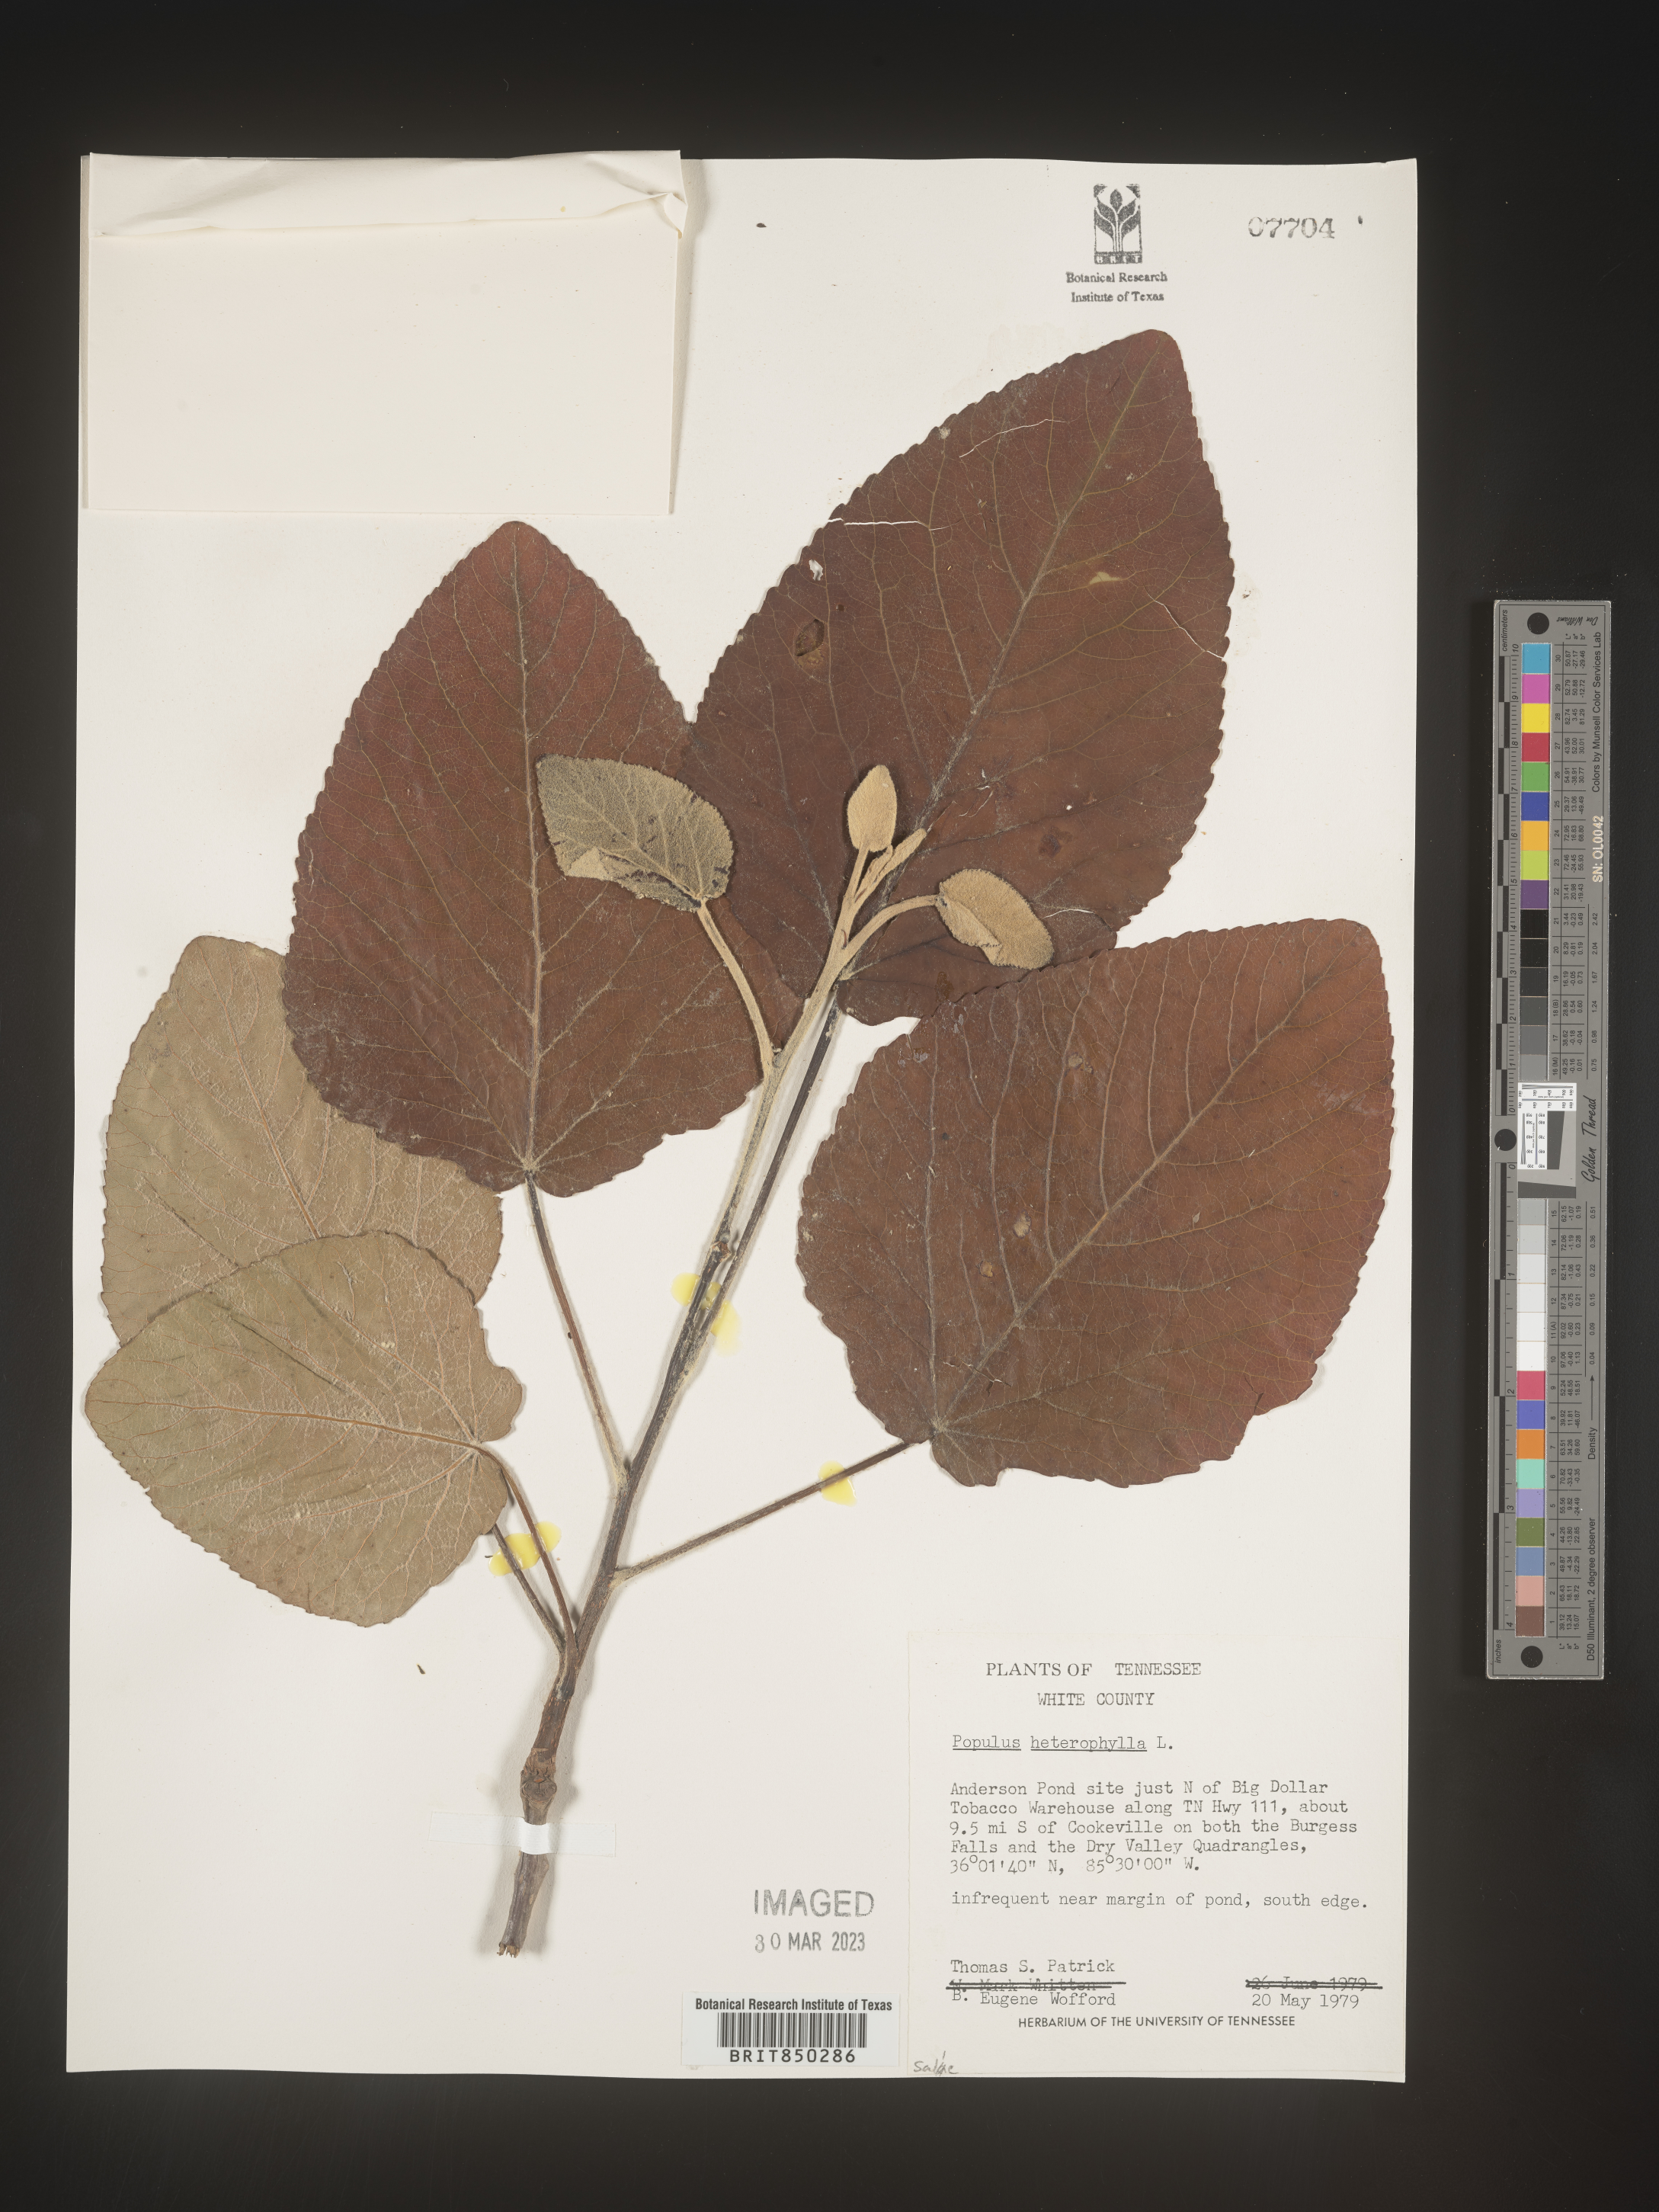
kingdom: Plantae
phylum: Tracheophyta
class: Magnoliopsida
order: Malpighiales
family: Salicaceae
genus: Populus
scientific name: Populus heterophylla
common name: Downy poplar
